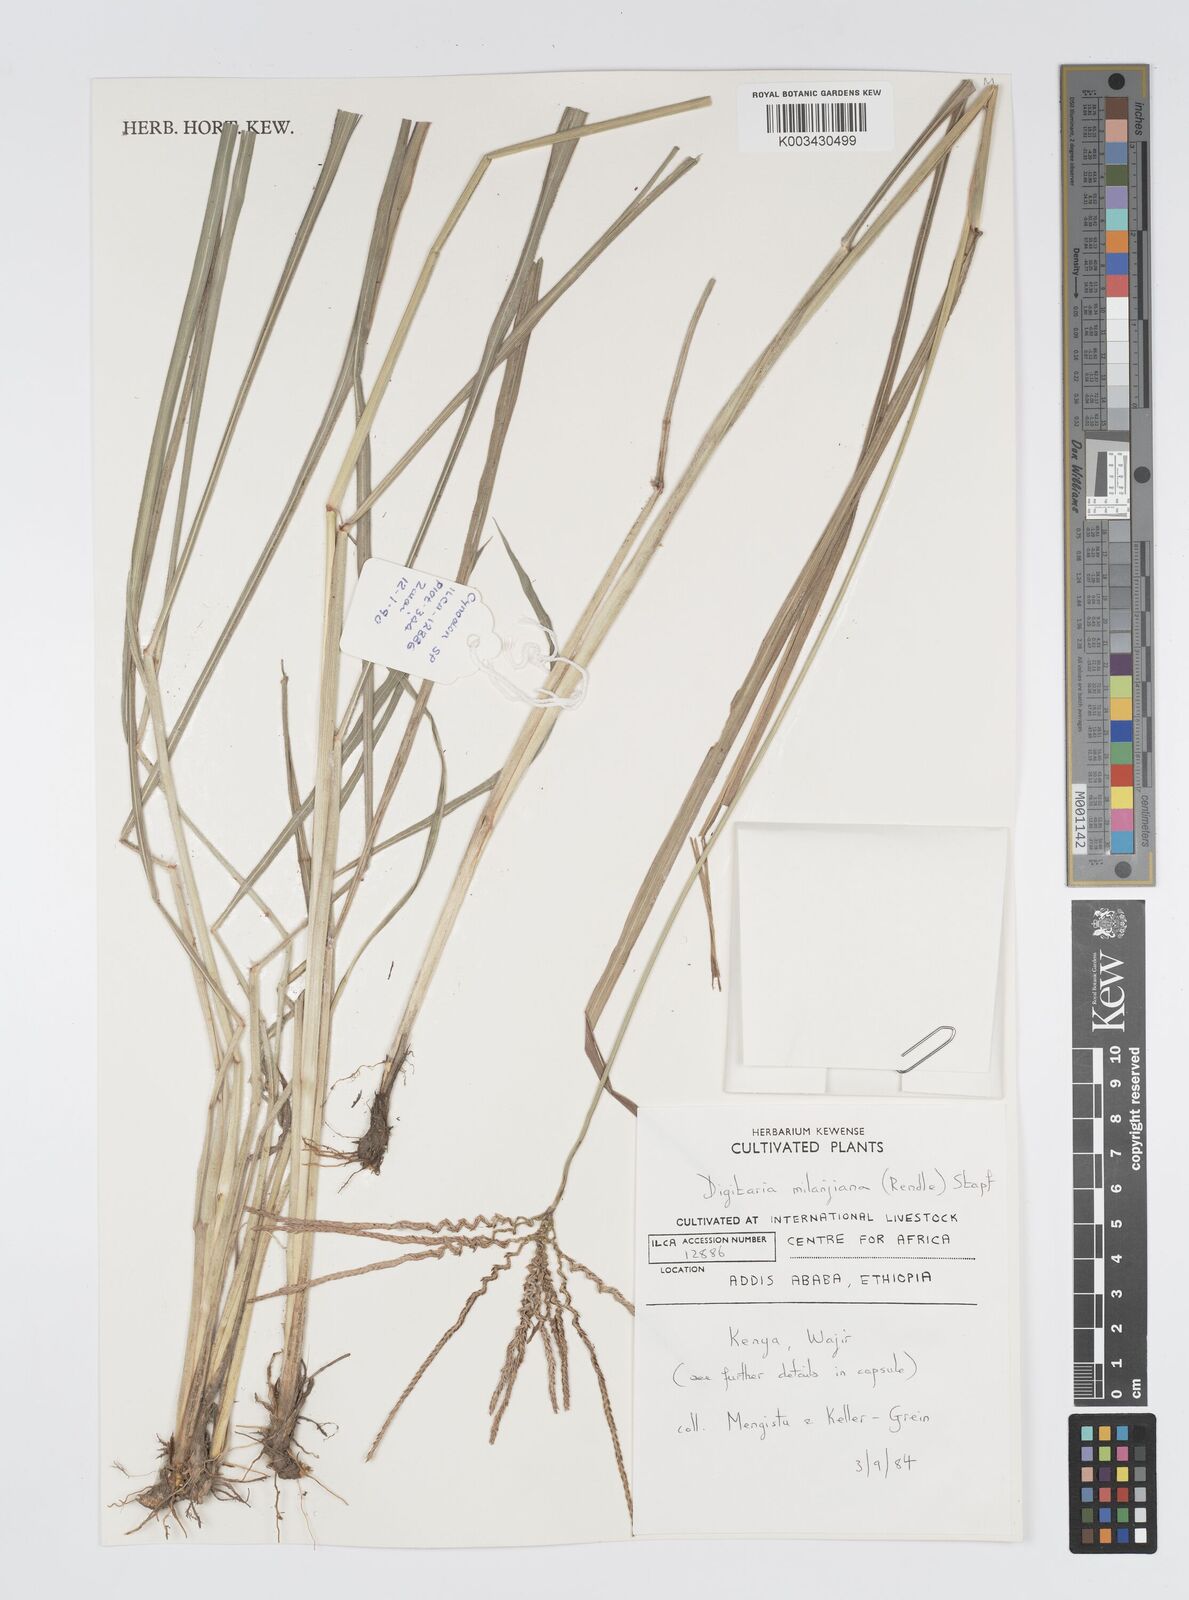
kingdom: Plantae
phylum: Tracheophyta
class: Liliopsida
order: Poales
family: Poaceae
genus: Digitaria
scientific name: Digitaria milanjiana
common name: Madagascar crabgrass
